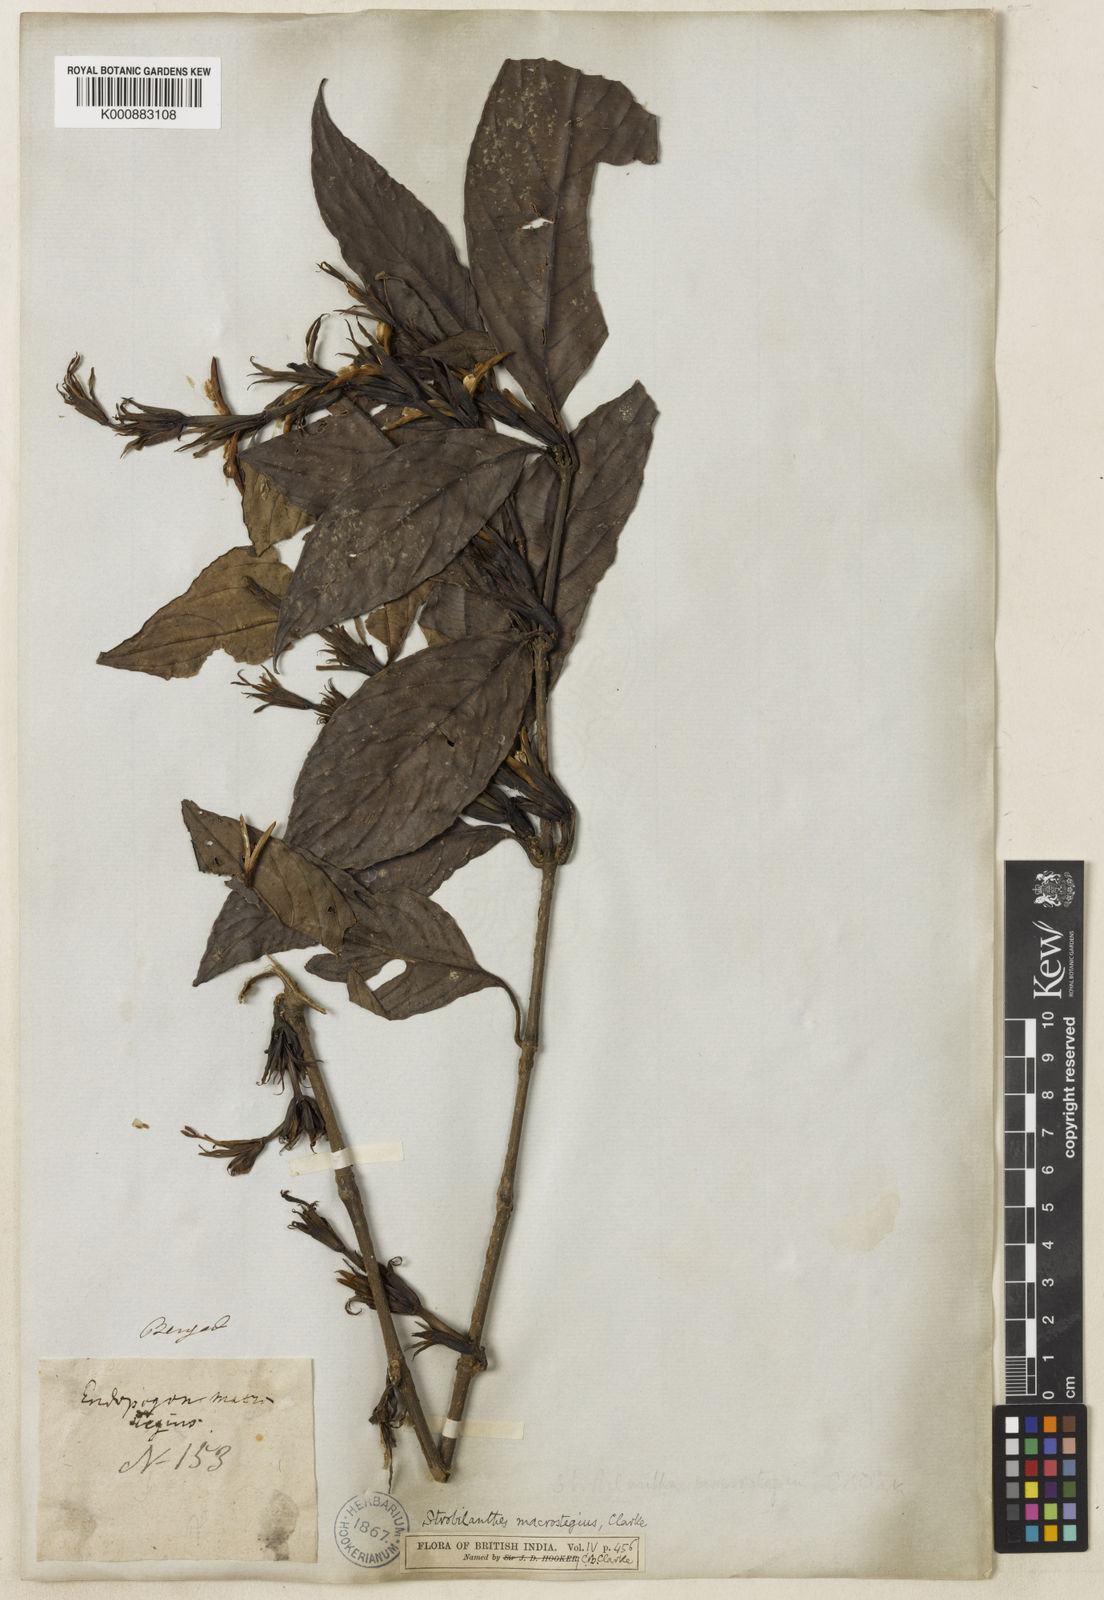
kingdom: Plantae
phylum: Tracheophyta
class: Magnoliopsida
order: Lamiales
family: Acanthaceae
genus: Strobilanthes
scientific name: Strobilanthes fimbriata
